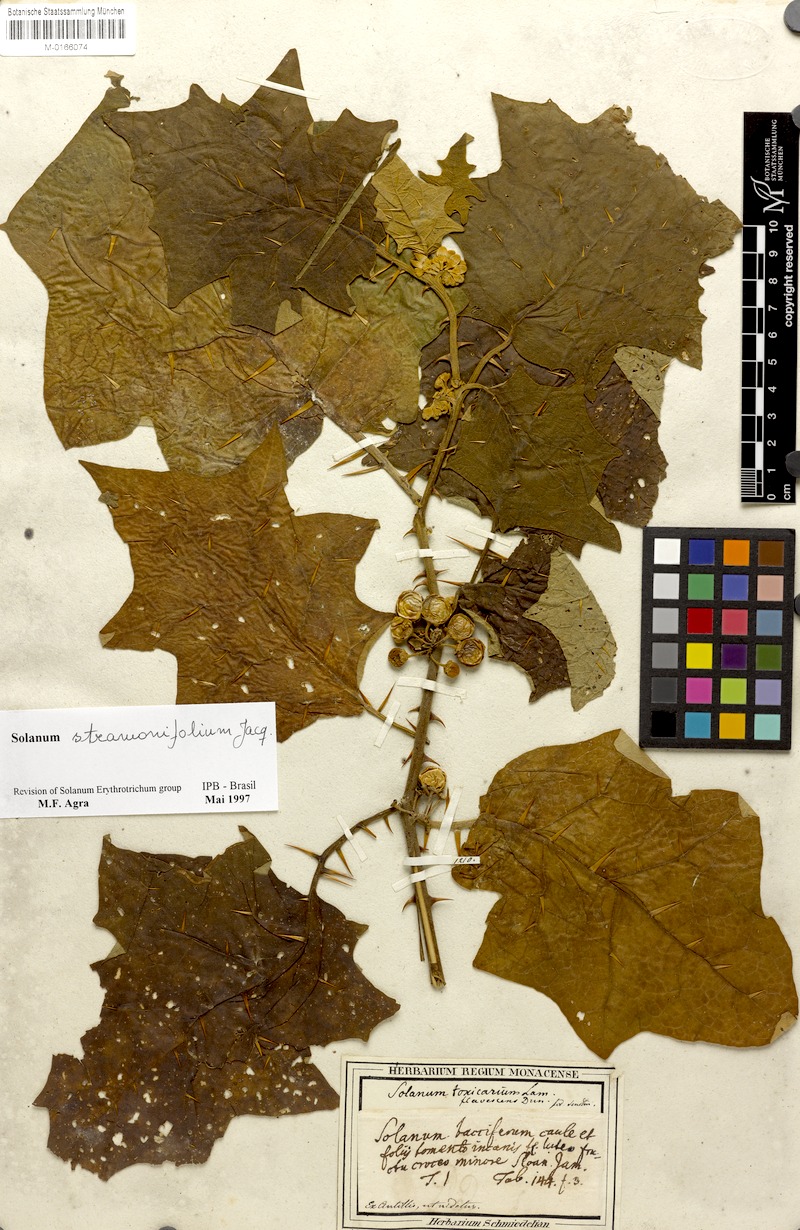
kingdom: Plantae
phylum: Tracheophyta
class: Magnoliopsida
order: Solanales
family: Solanaceae
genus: Solanum
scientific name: Solanum stramonifolium
